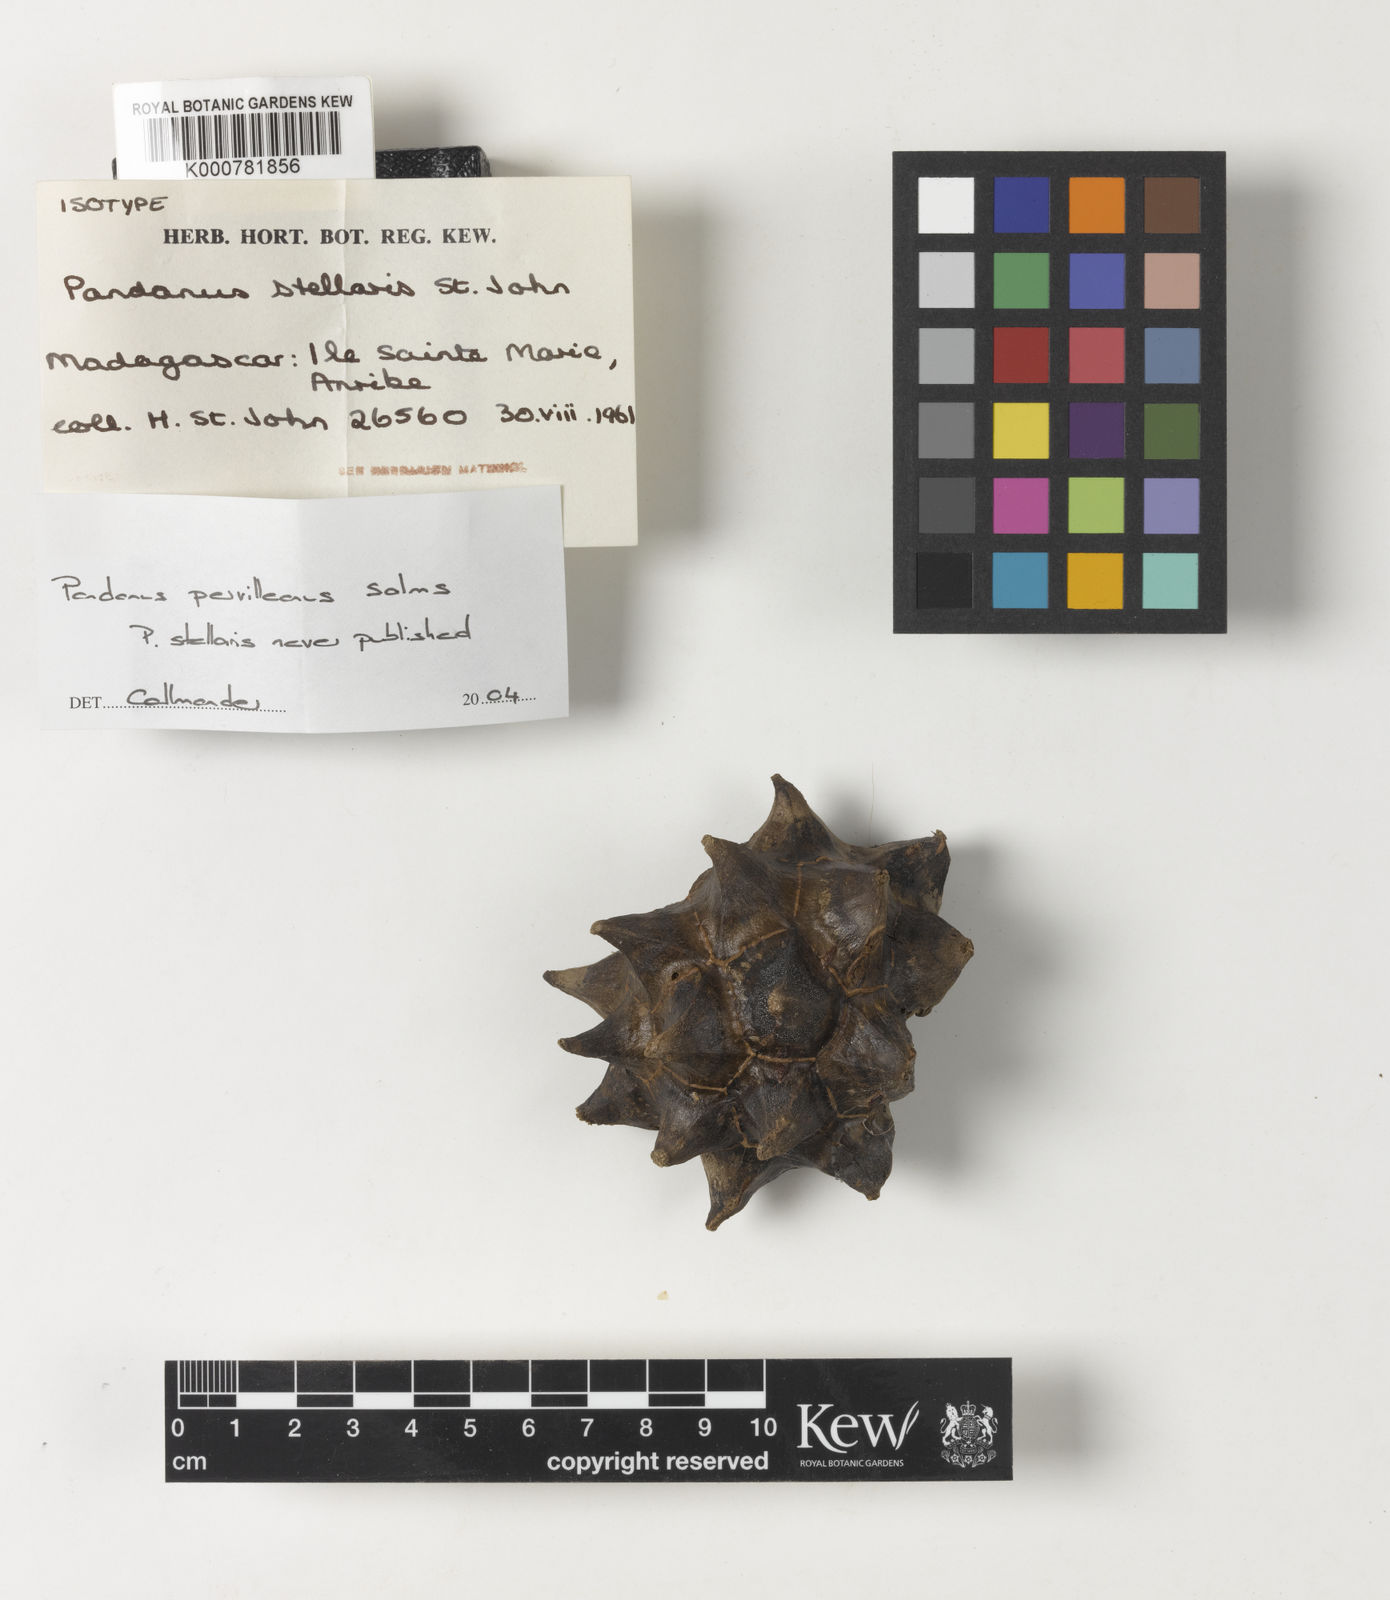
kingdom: Plantae
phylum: Tracheophyta
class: Liliopsida
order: Pandanales
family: Pandanaceae
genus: Pandanus
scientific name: Pandanus
